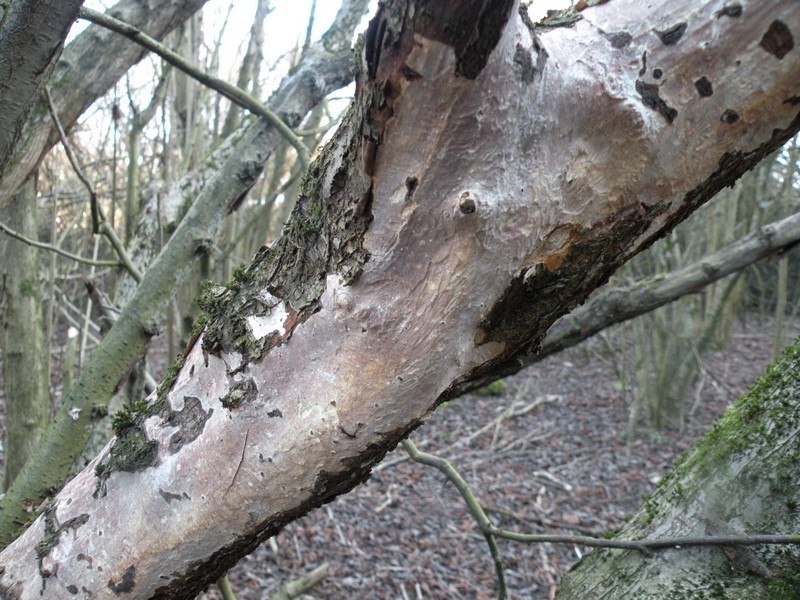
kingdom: Fungi
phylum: Basidiomycota
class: Agaricomycetes
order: Corticiales
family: Vuilleminiaceae
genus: Vuilleminia
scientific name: Vuilleminia coryli
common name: hassel-barksprænger
